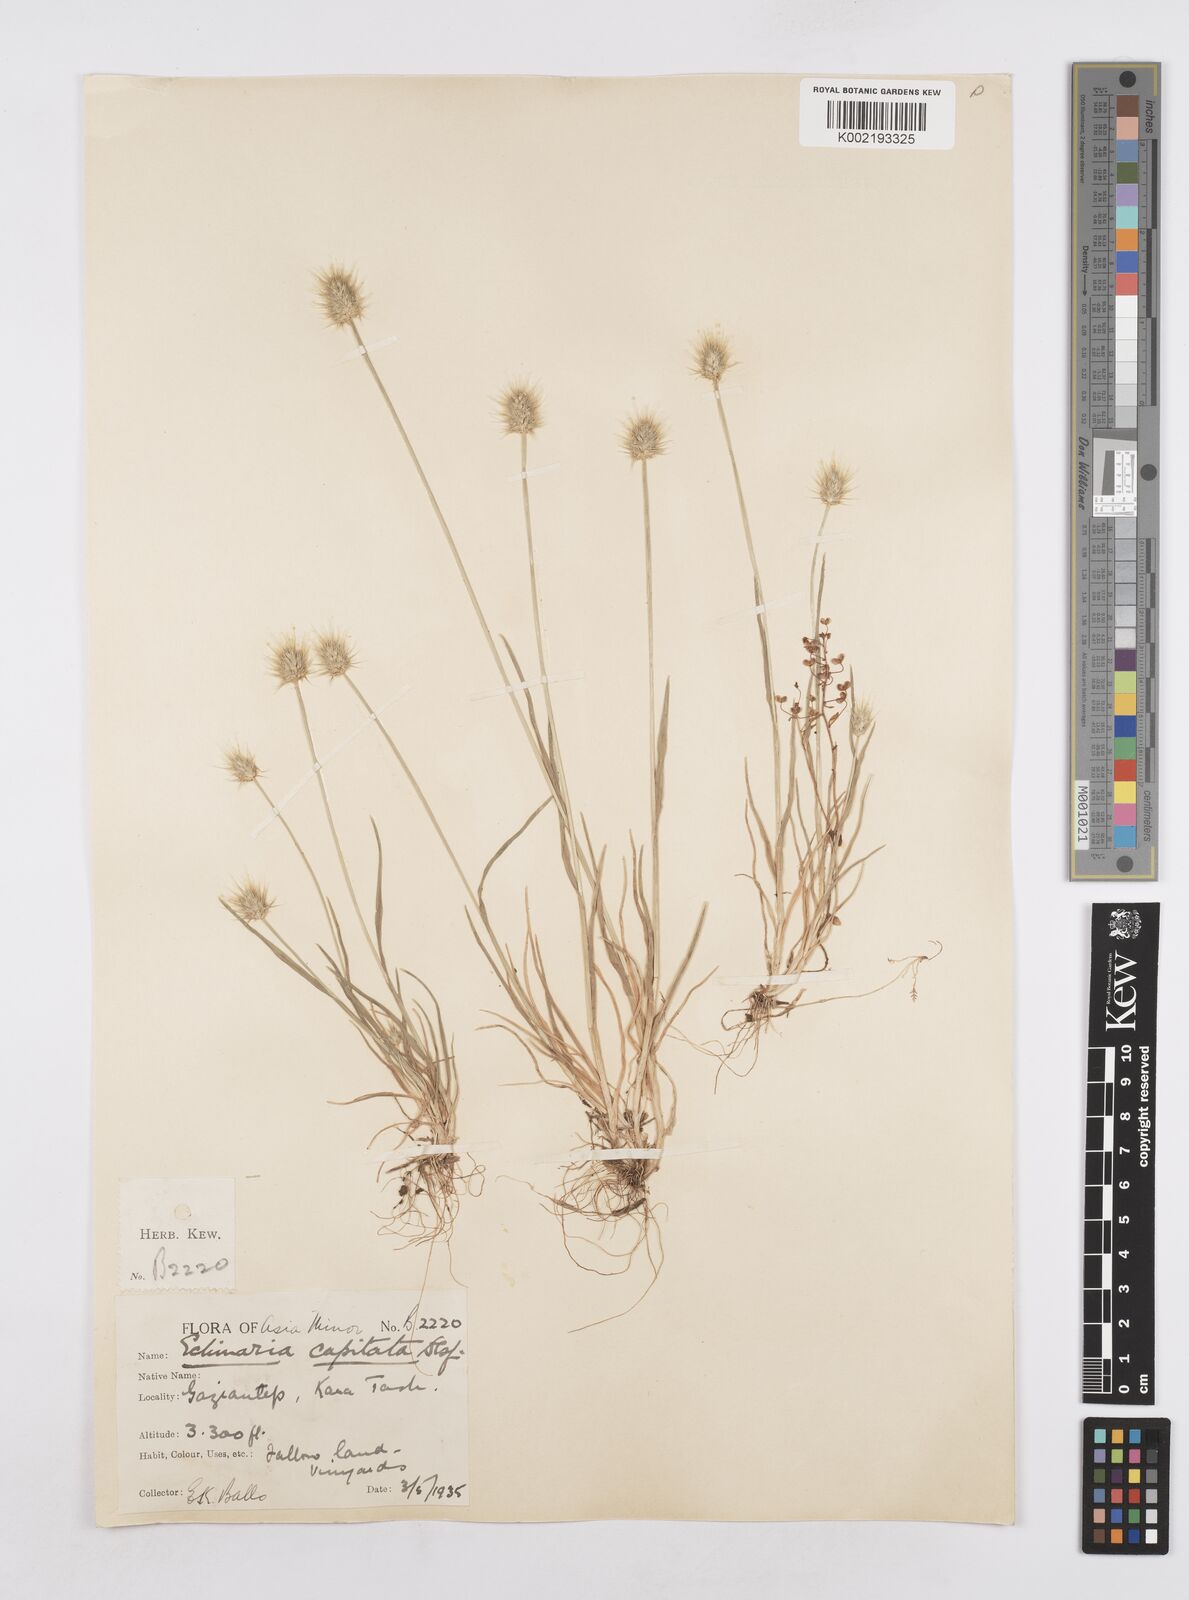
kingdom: Plantae
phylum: Tracheophyta
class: Liliopsida
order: Poales
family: Poaceae
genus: Echinaria
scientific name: Echinaria capitata
